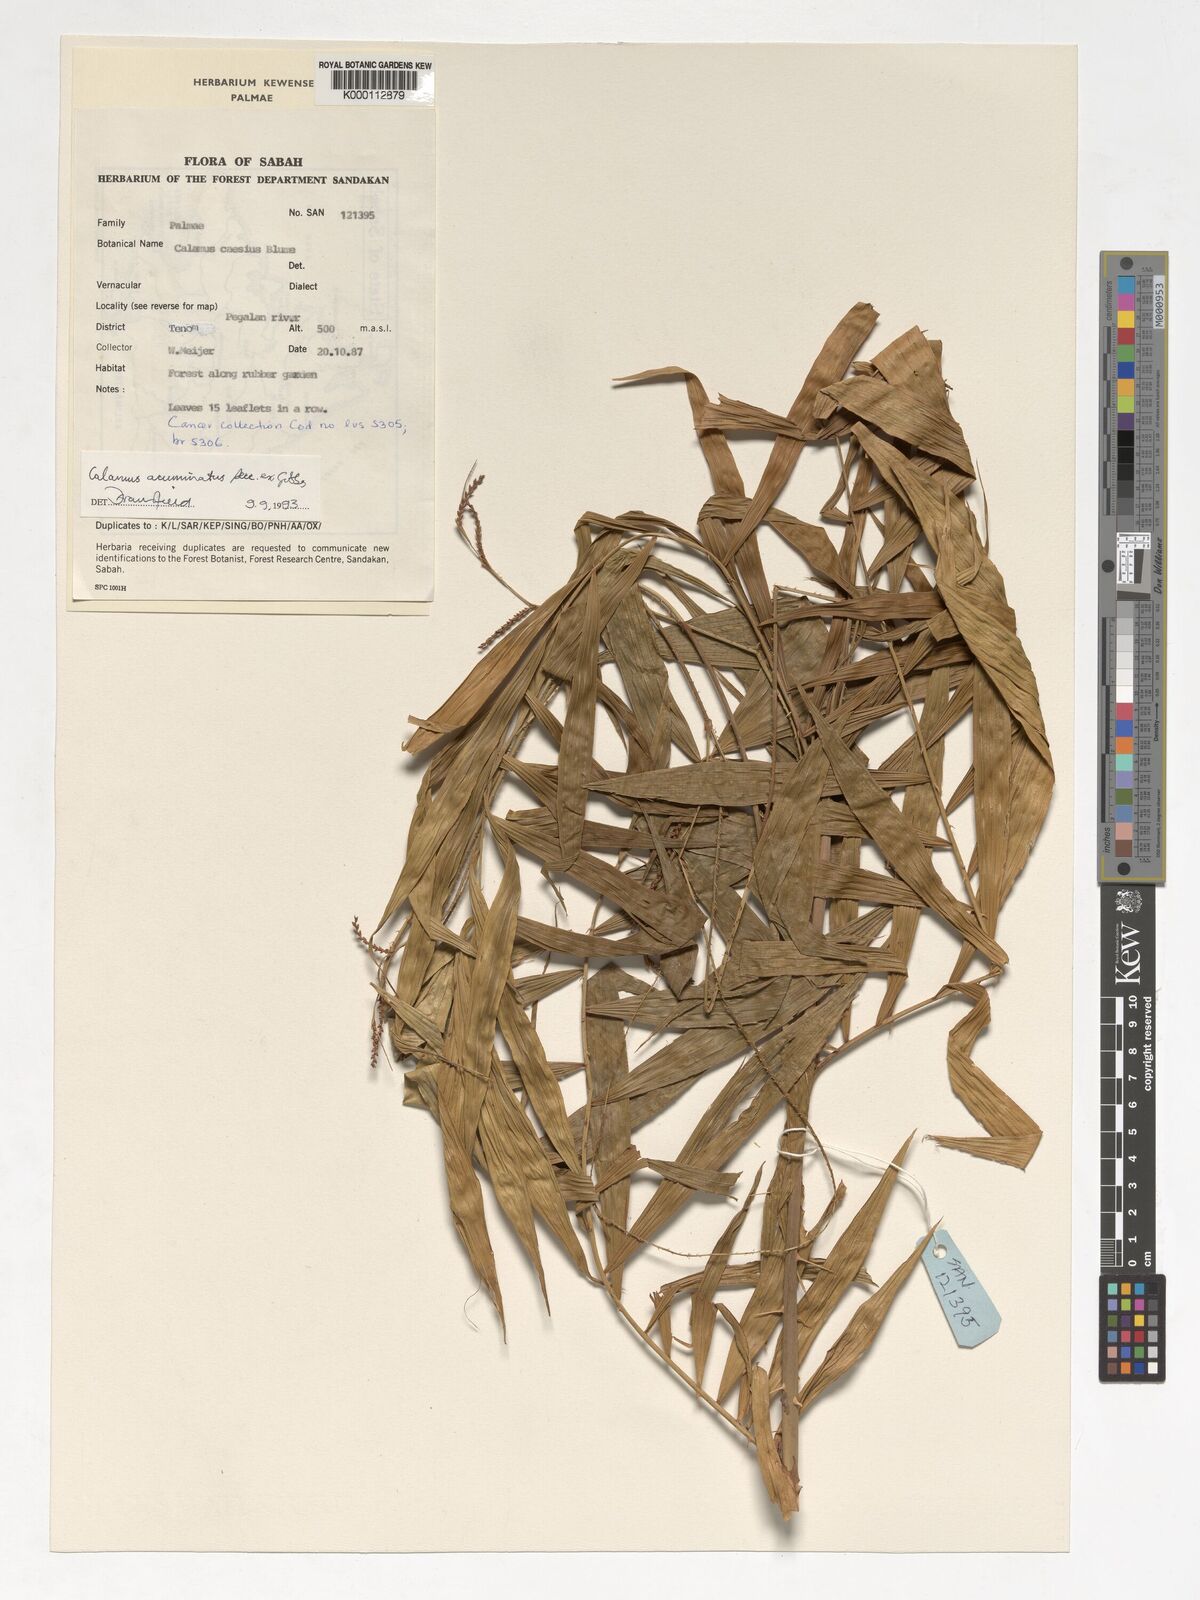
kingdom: Plantae
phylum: Tracheophyta
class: Liliopsida
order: Arecales
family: Arecaceae
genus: Calamus
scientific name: Calamus javensis
